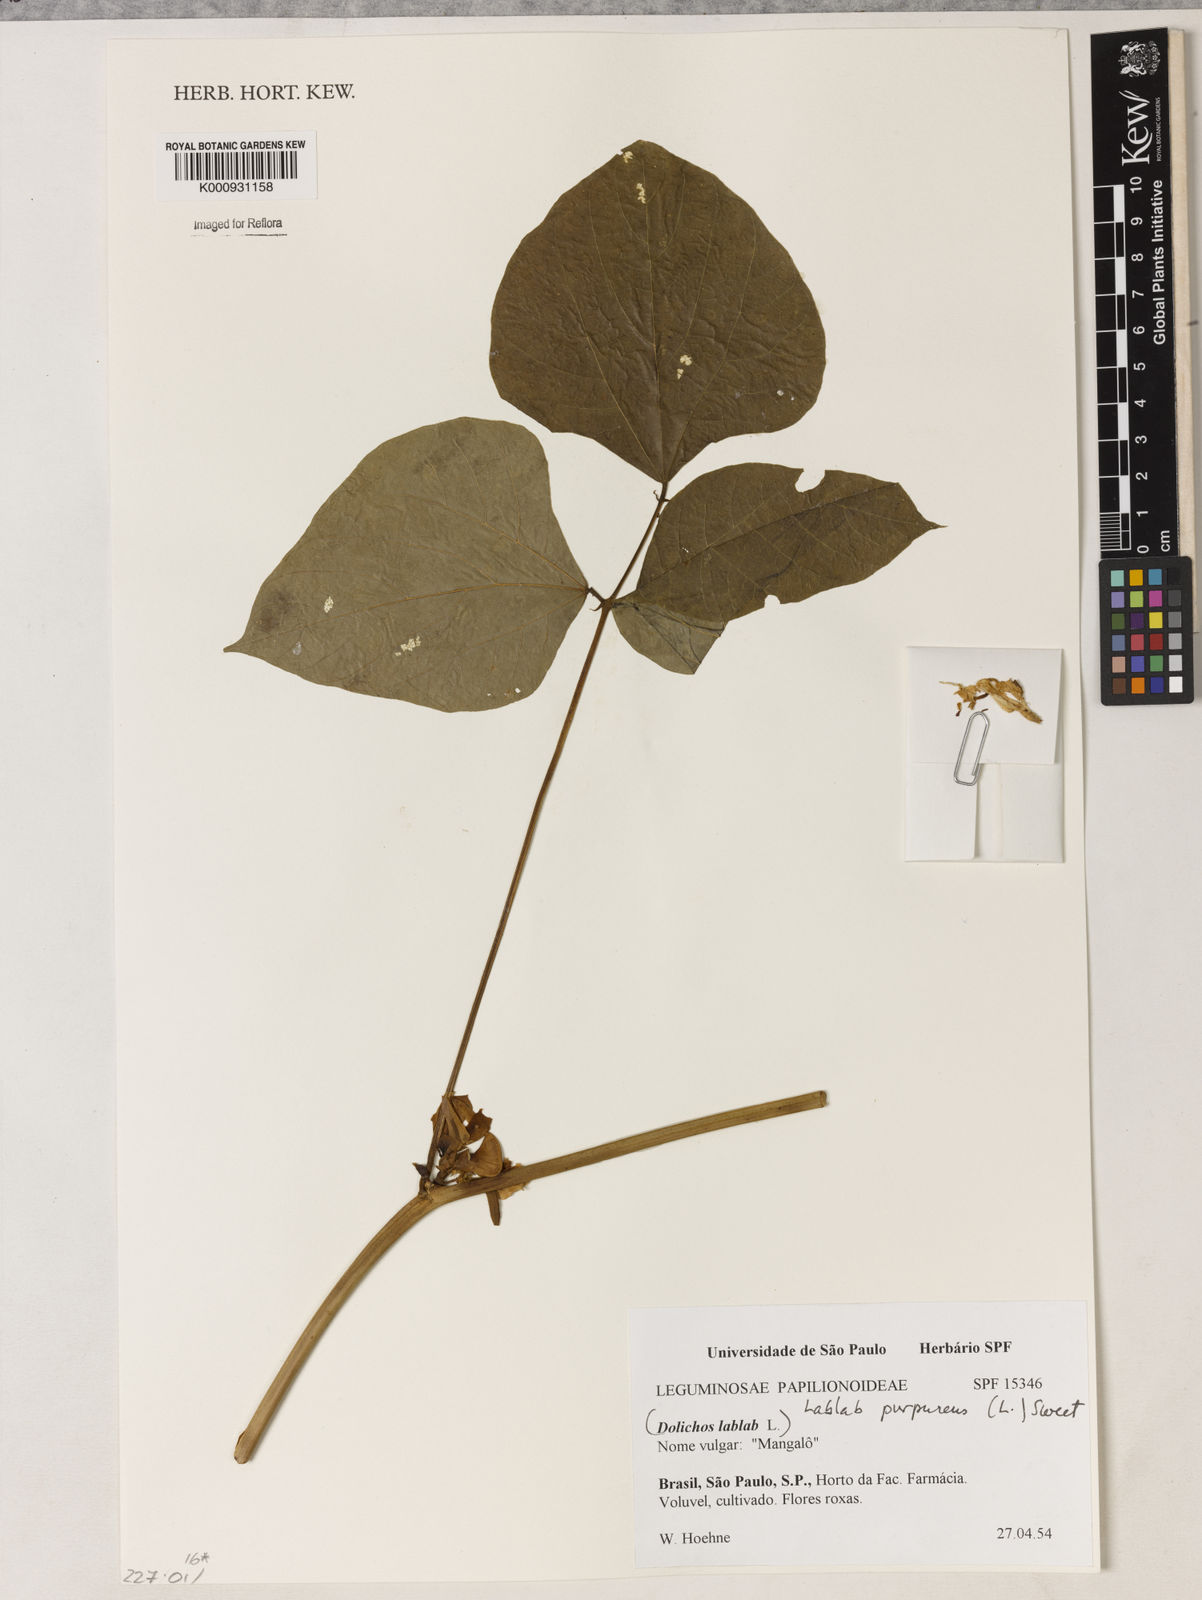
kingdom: Plantae
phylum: Tracheophyta
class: Magnoliopsida
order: Fabales
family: Fabaceae
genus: Lablab
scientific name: Lablab purpureus
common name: Lablab-bean
